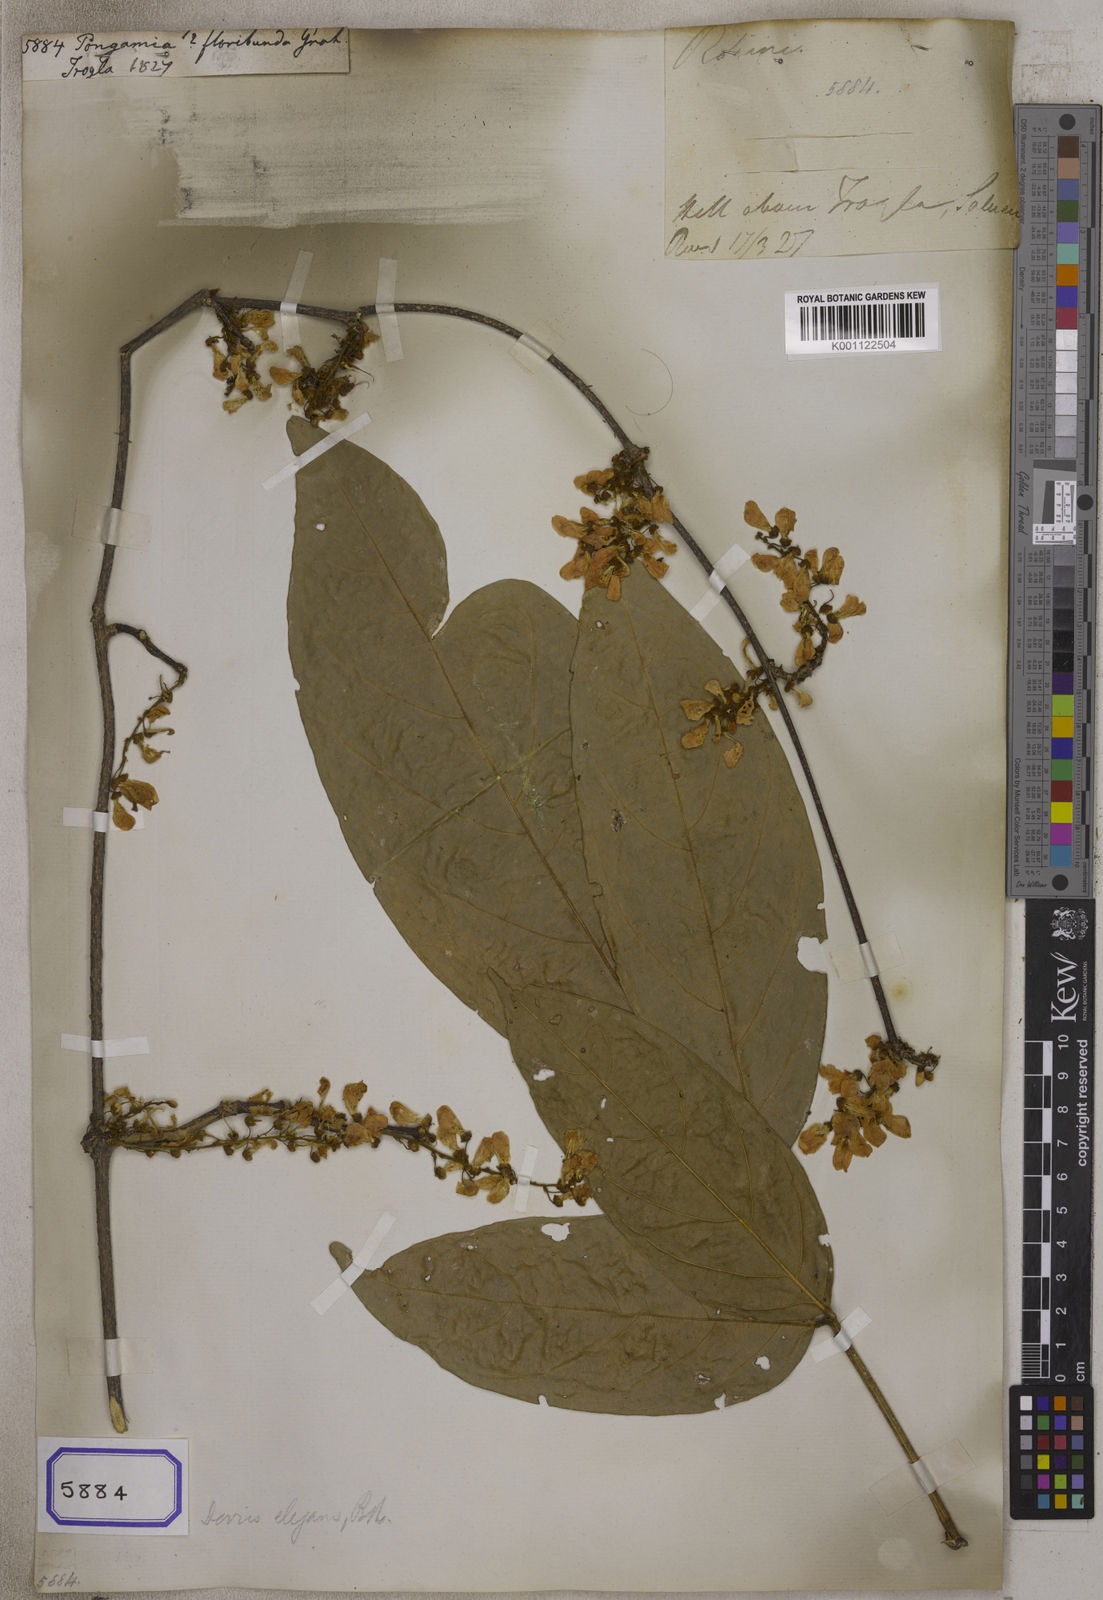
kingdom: Plantae
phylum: Tracheophyta
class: Magnoliopsida
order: Fabales
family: Fabaceae
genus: Derris
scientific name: Derris elegans
